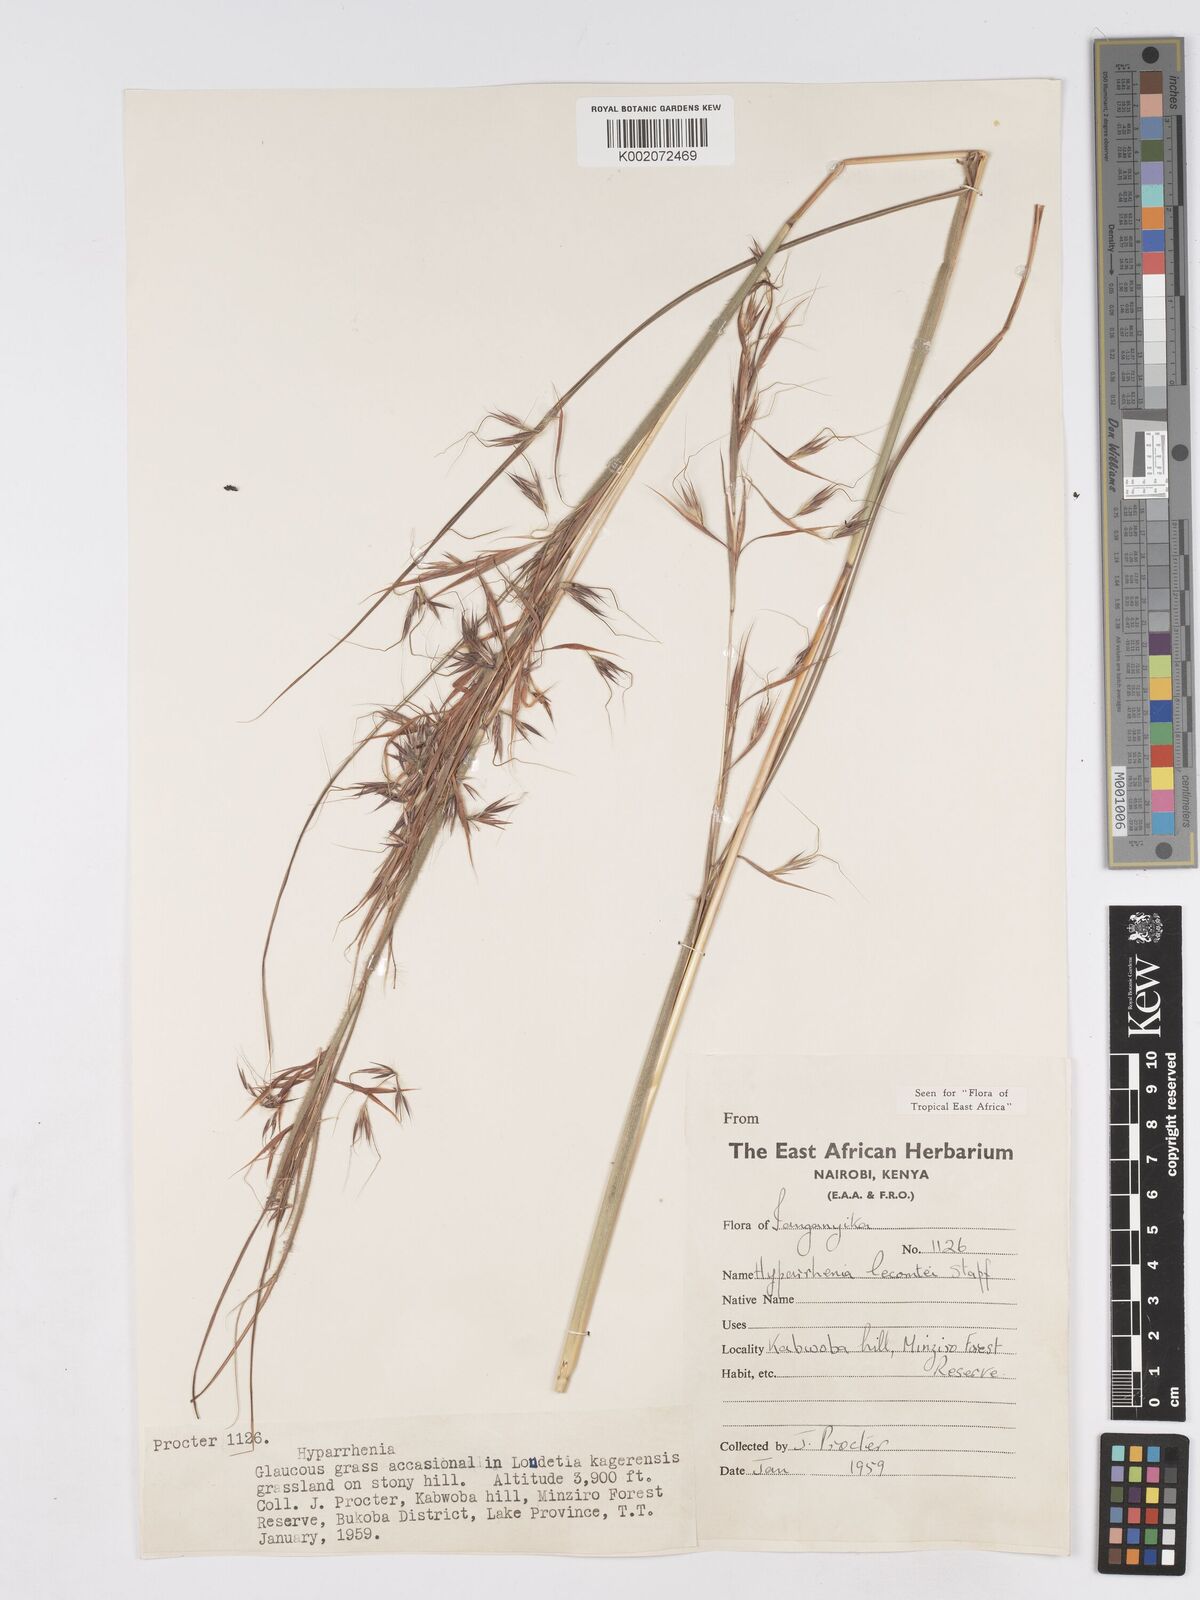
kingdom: Plantae
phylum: Tracheophyta
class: Liliopsida
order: Poales
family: Poaceae
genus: Hyparrhenia
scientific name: Hyparrhenia newtonii
